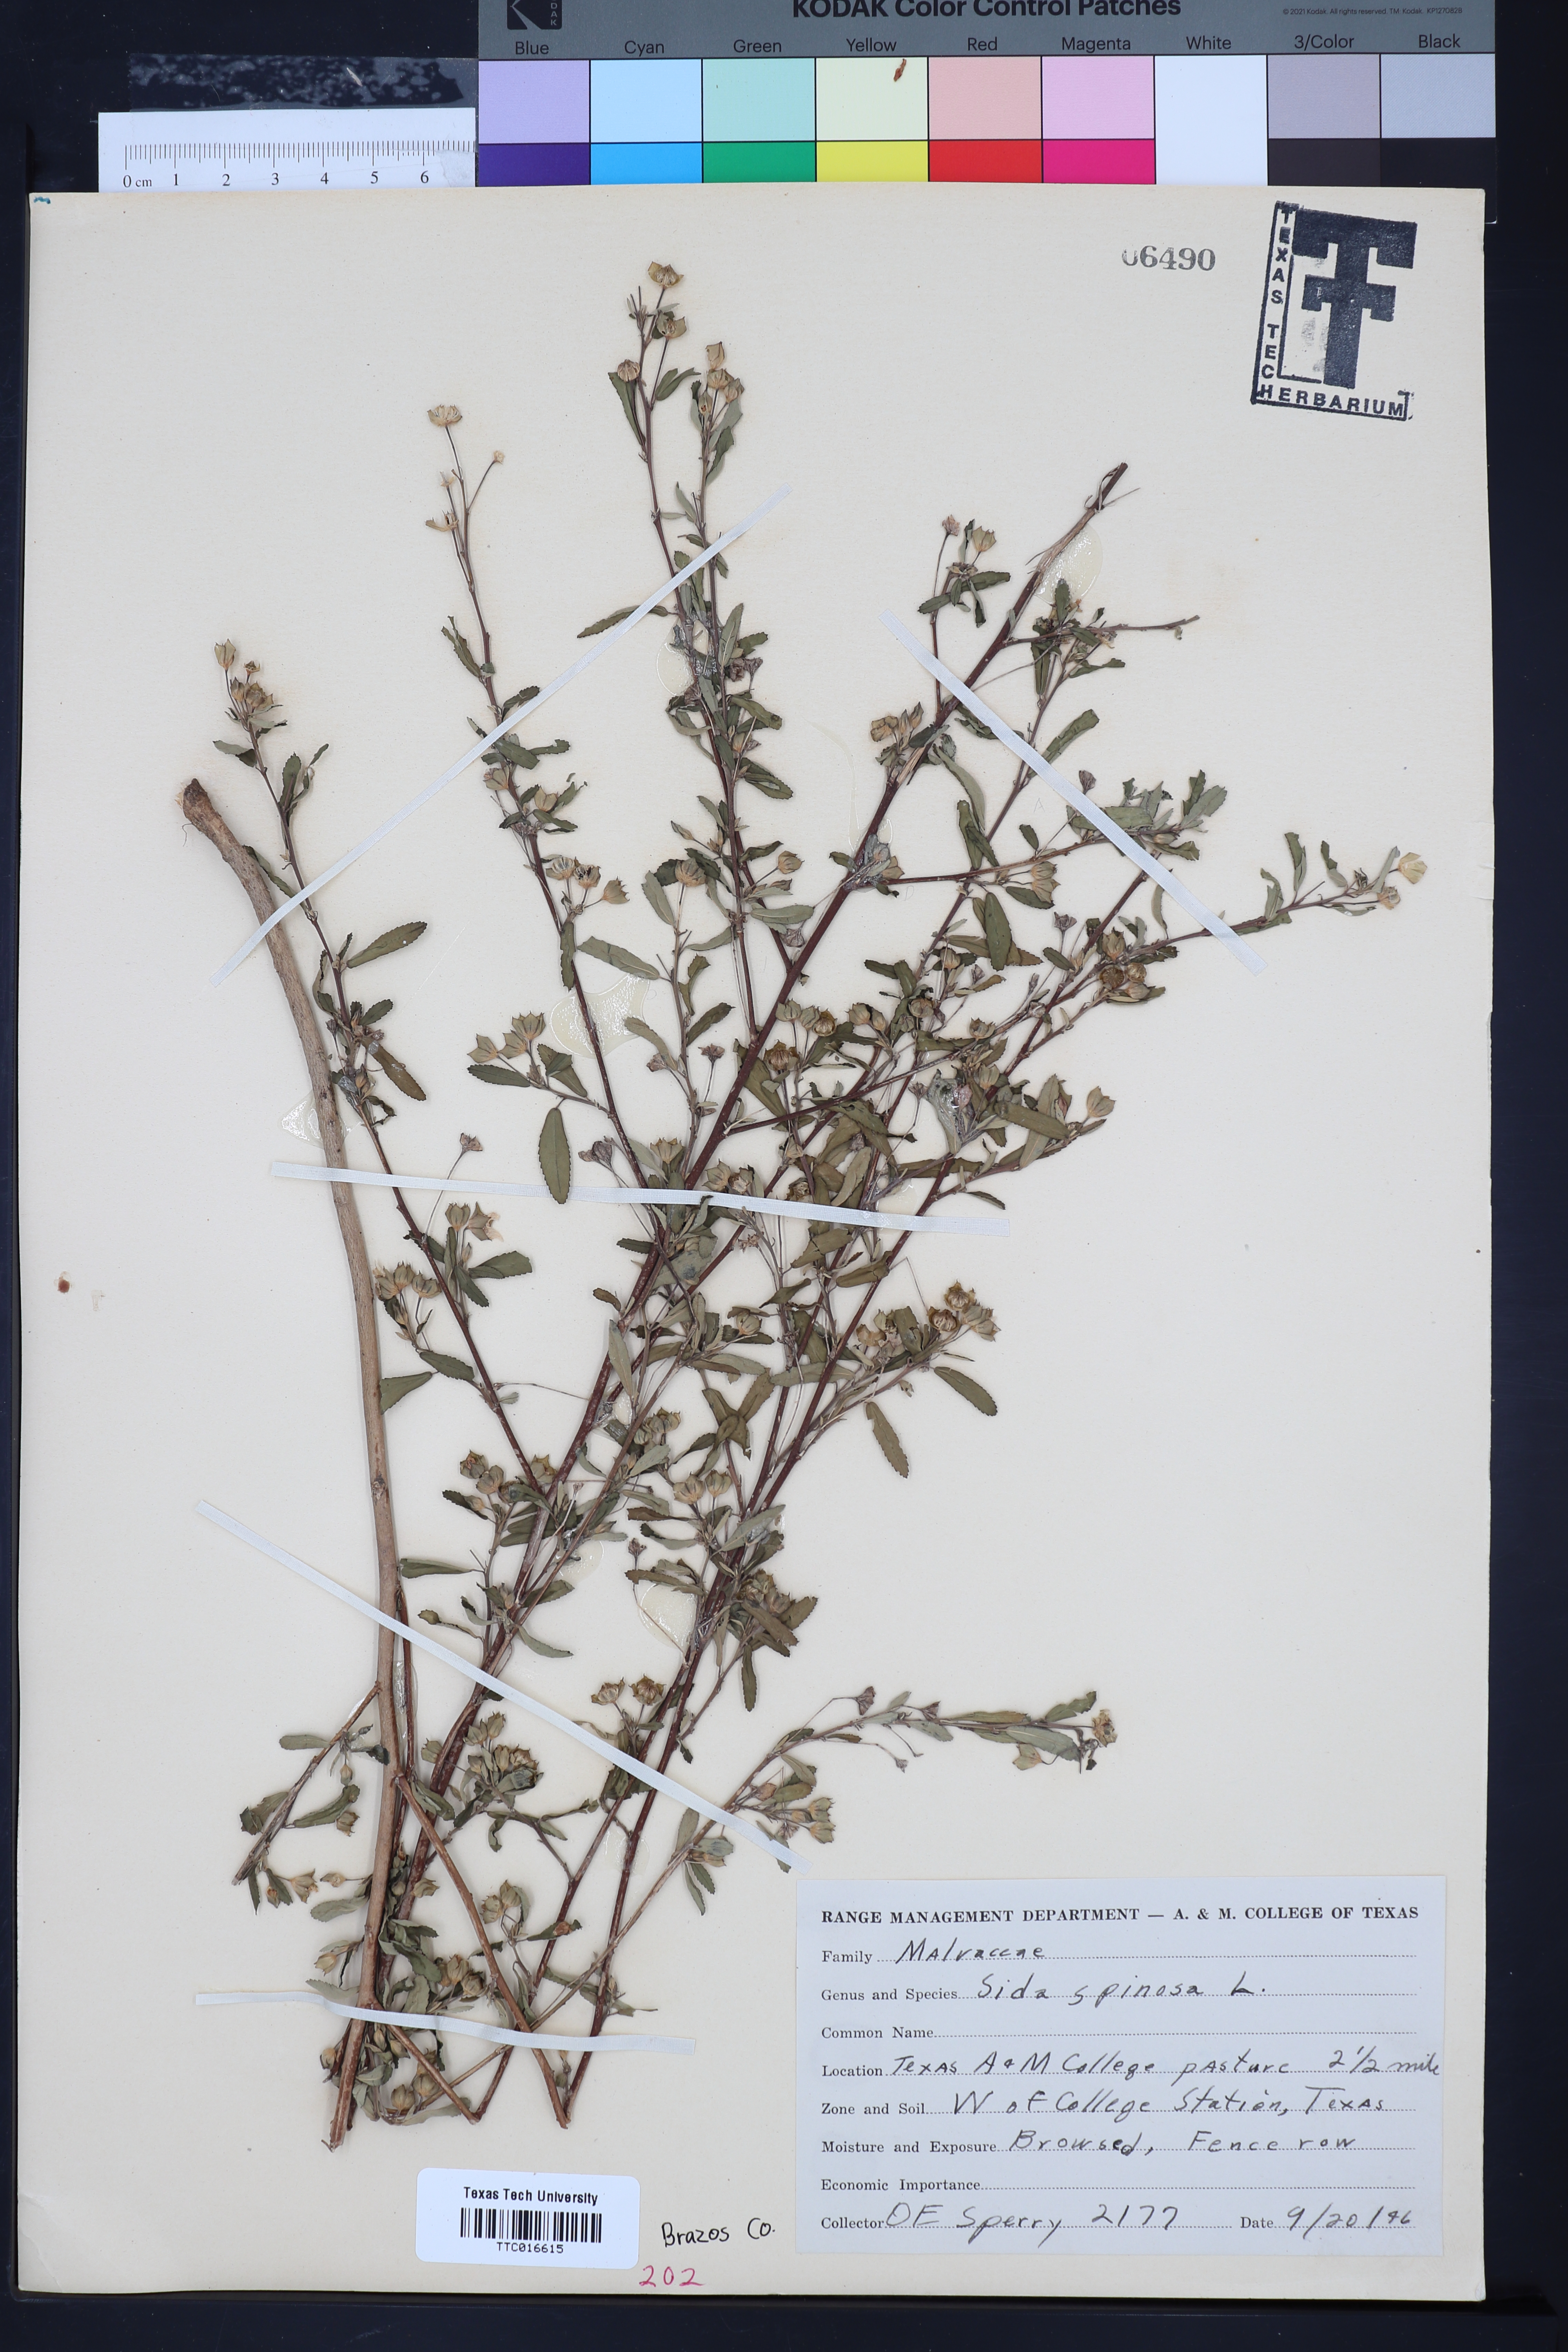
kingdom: Plantae
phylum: Tracheophyta
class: Magnoliopsida
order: Malvales
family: Malvaceae
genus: Sida
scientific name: Sida spinosa
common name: Prickly fanpetals
